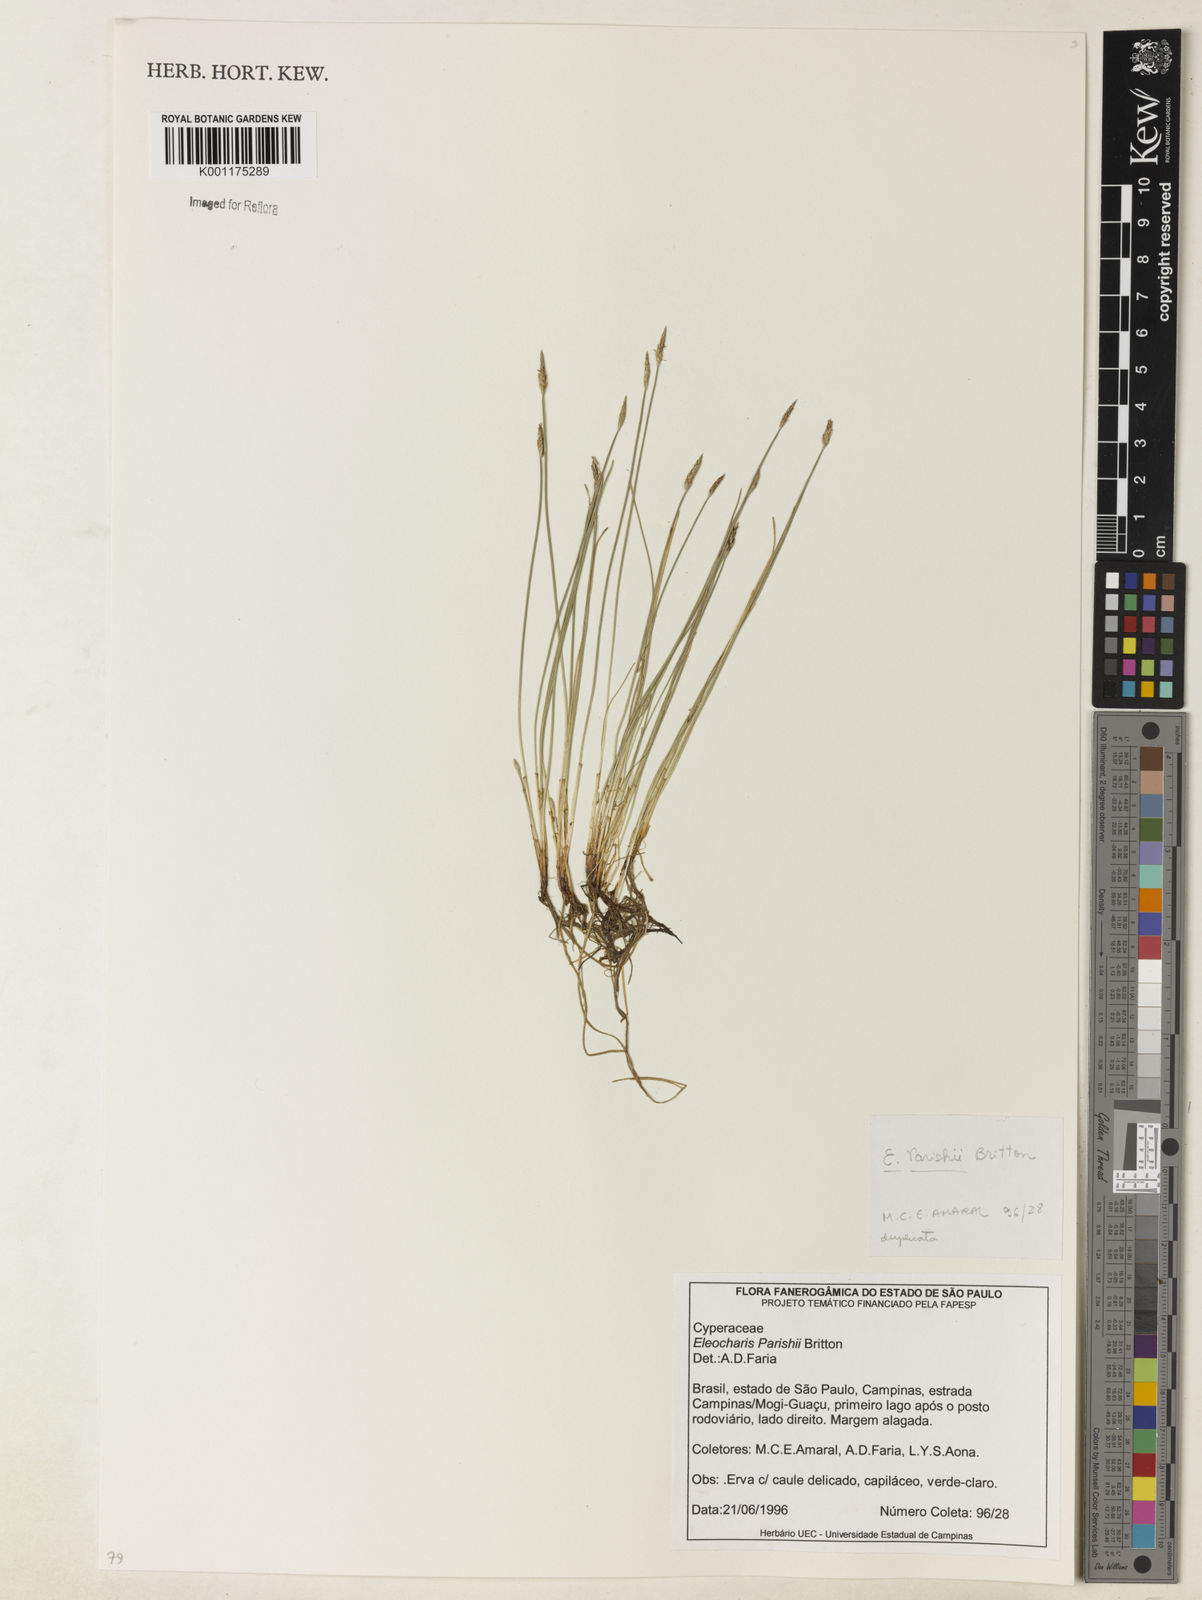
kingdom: Plantae
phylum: Tracheophyta
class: Liliopsida
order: Poales
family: Cyperaceae
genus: Eleocharis
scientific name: Eleocharis parishii
